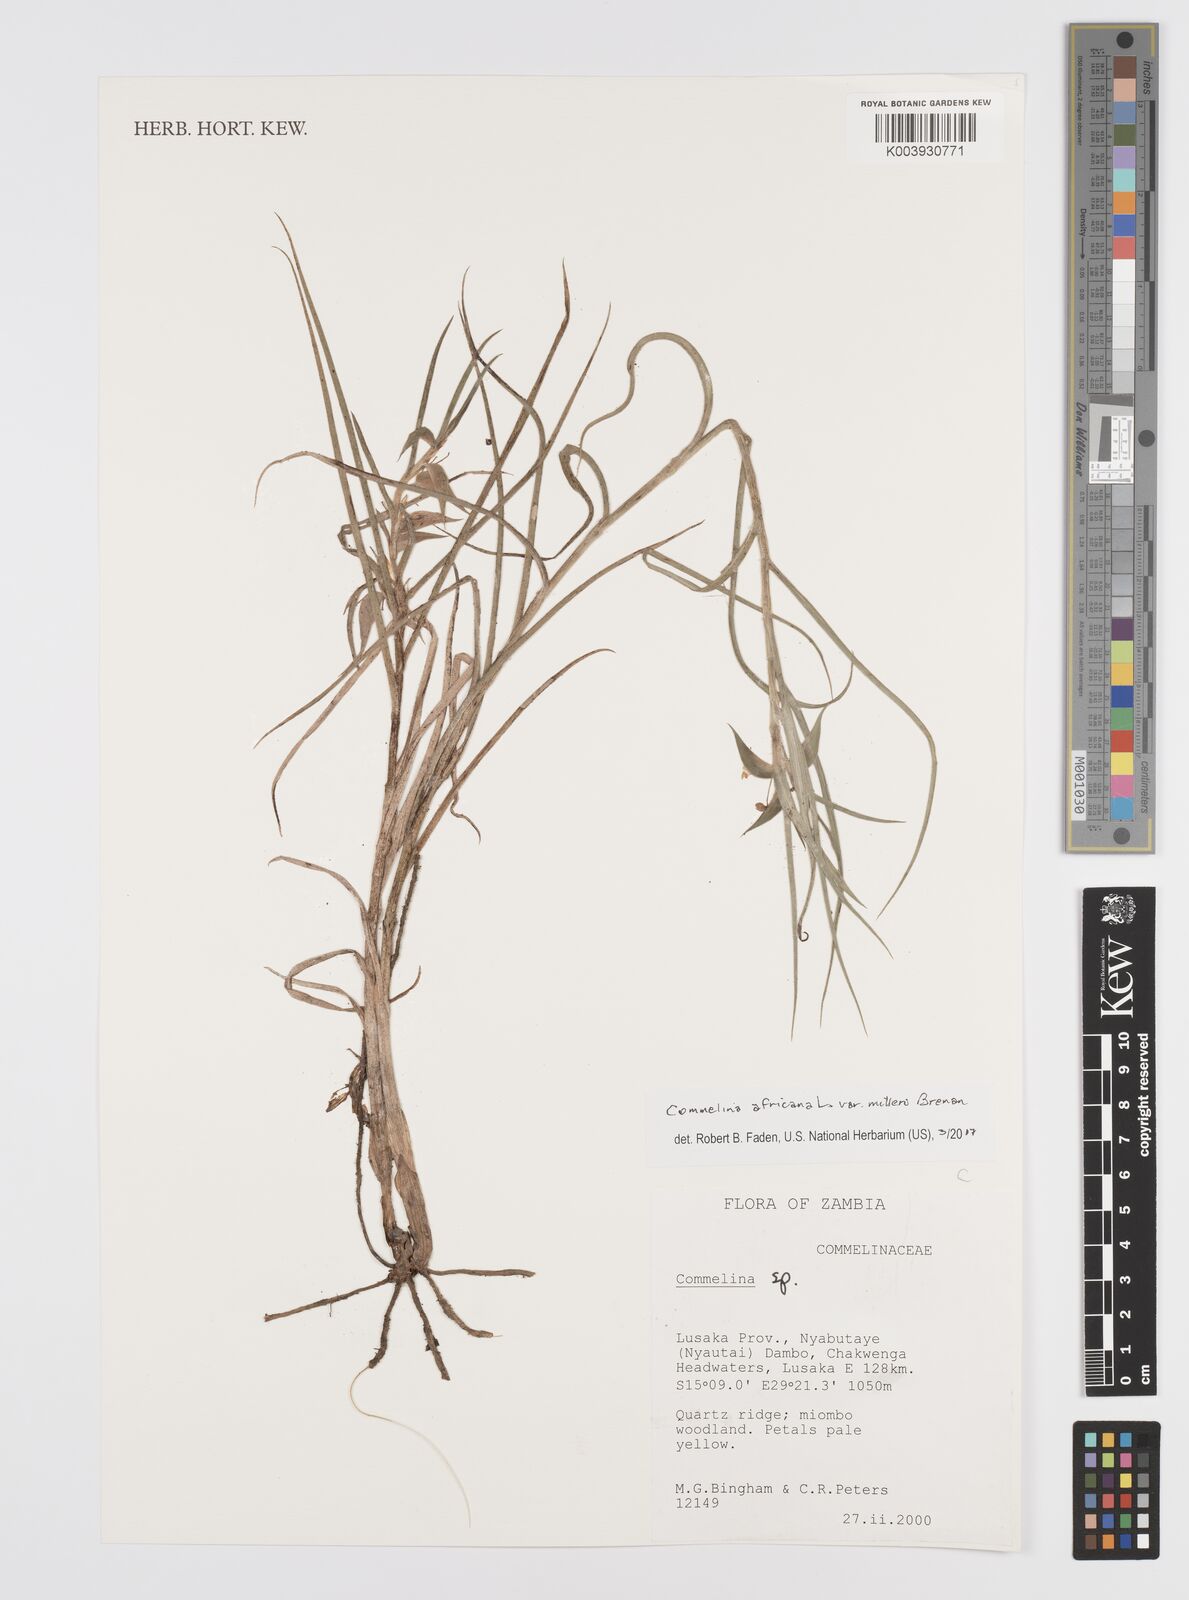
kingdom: Plantae
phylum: Tracheophyta
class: Liliopsida
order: Commelinales
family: Commelinaceae
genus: Commelina
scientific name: Commelina africana
